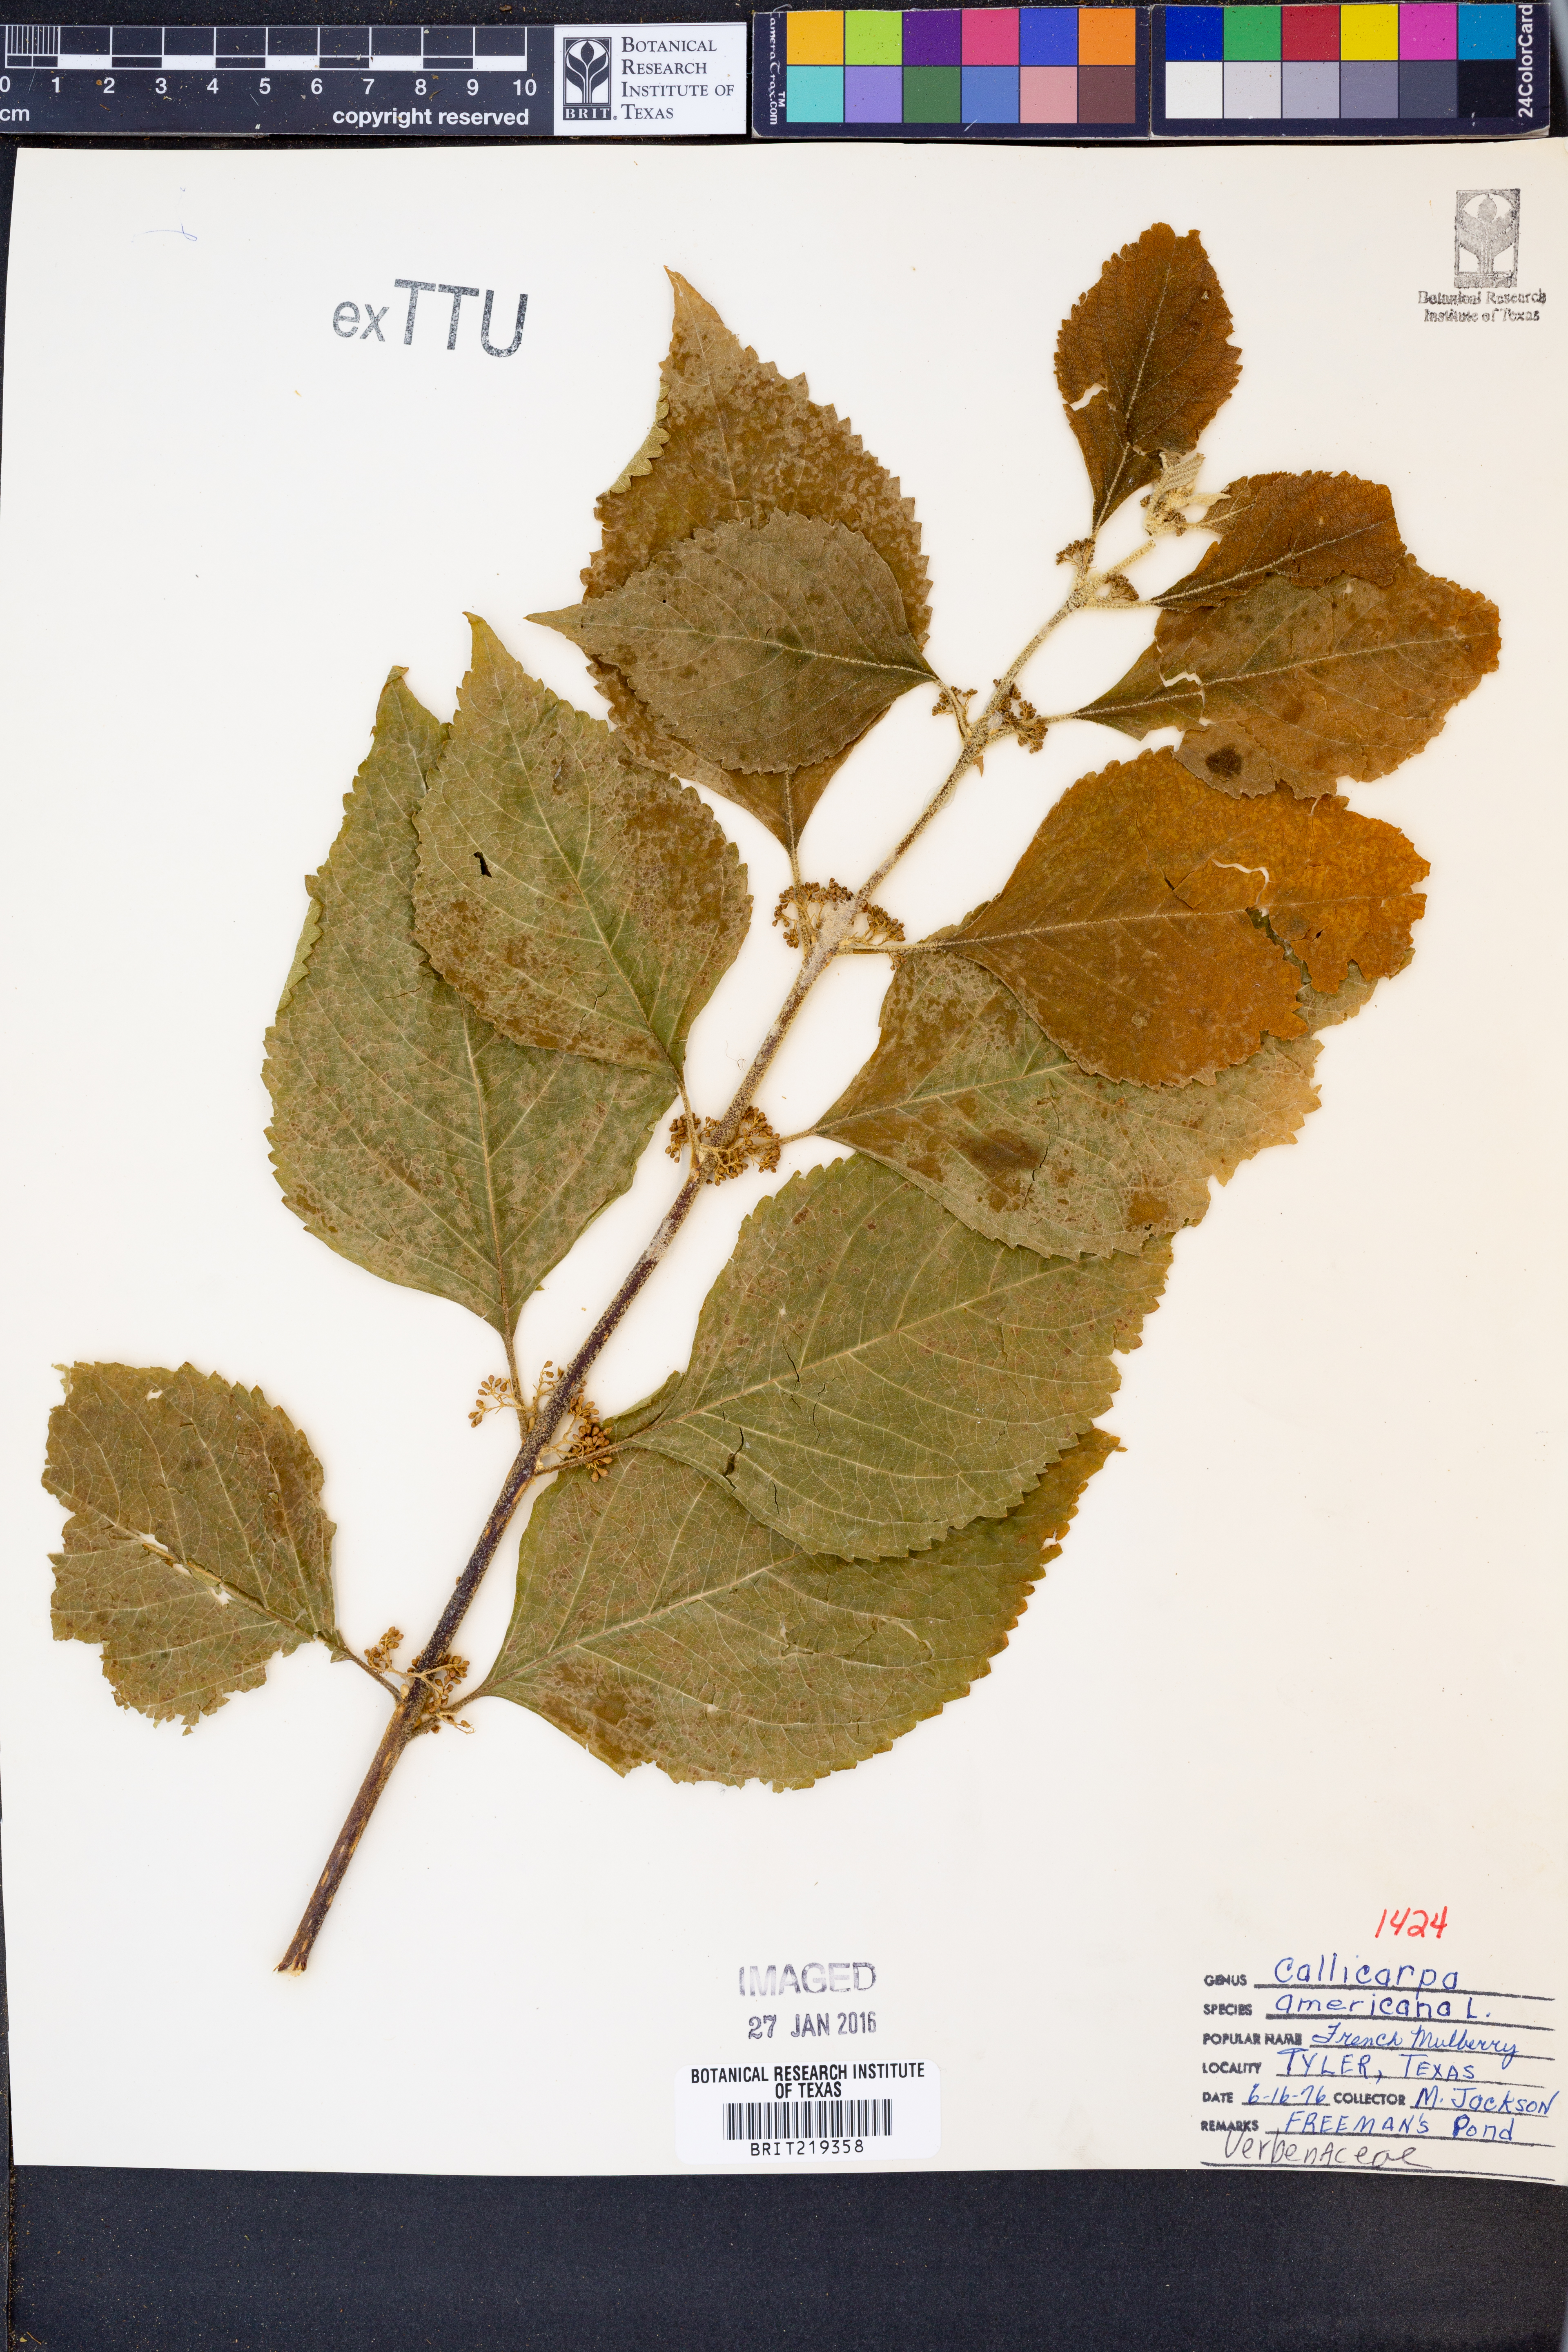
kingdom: Plantae
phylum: Tracheophyta
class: Magnoliopsida
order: Lamiales
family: Lamiaceae
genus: Callicarpa
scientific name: Callicarpa americana
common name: American beautyberry
